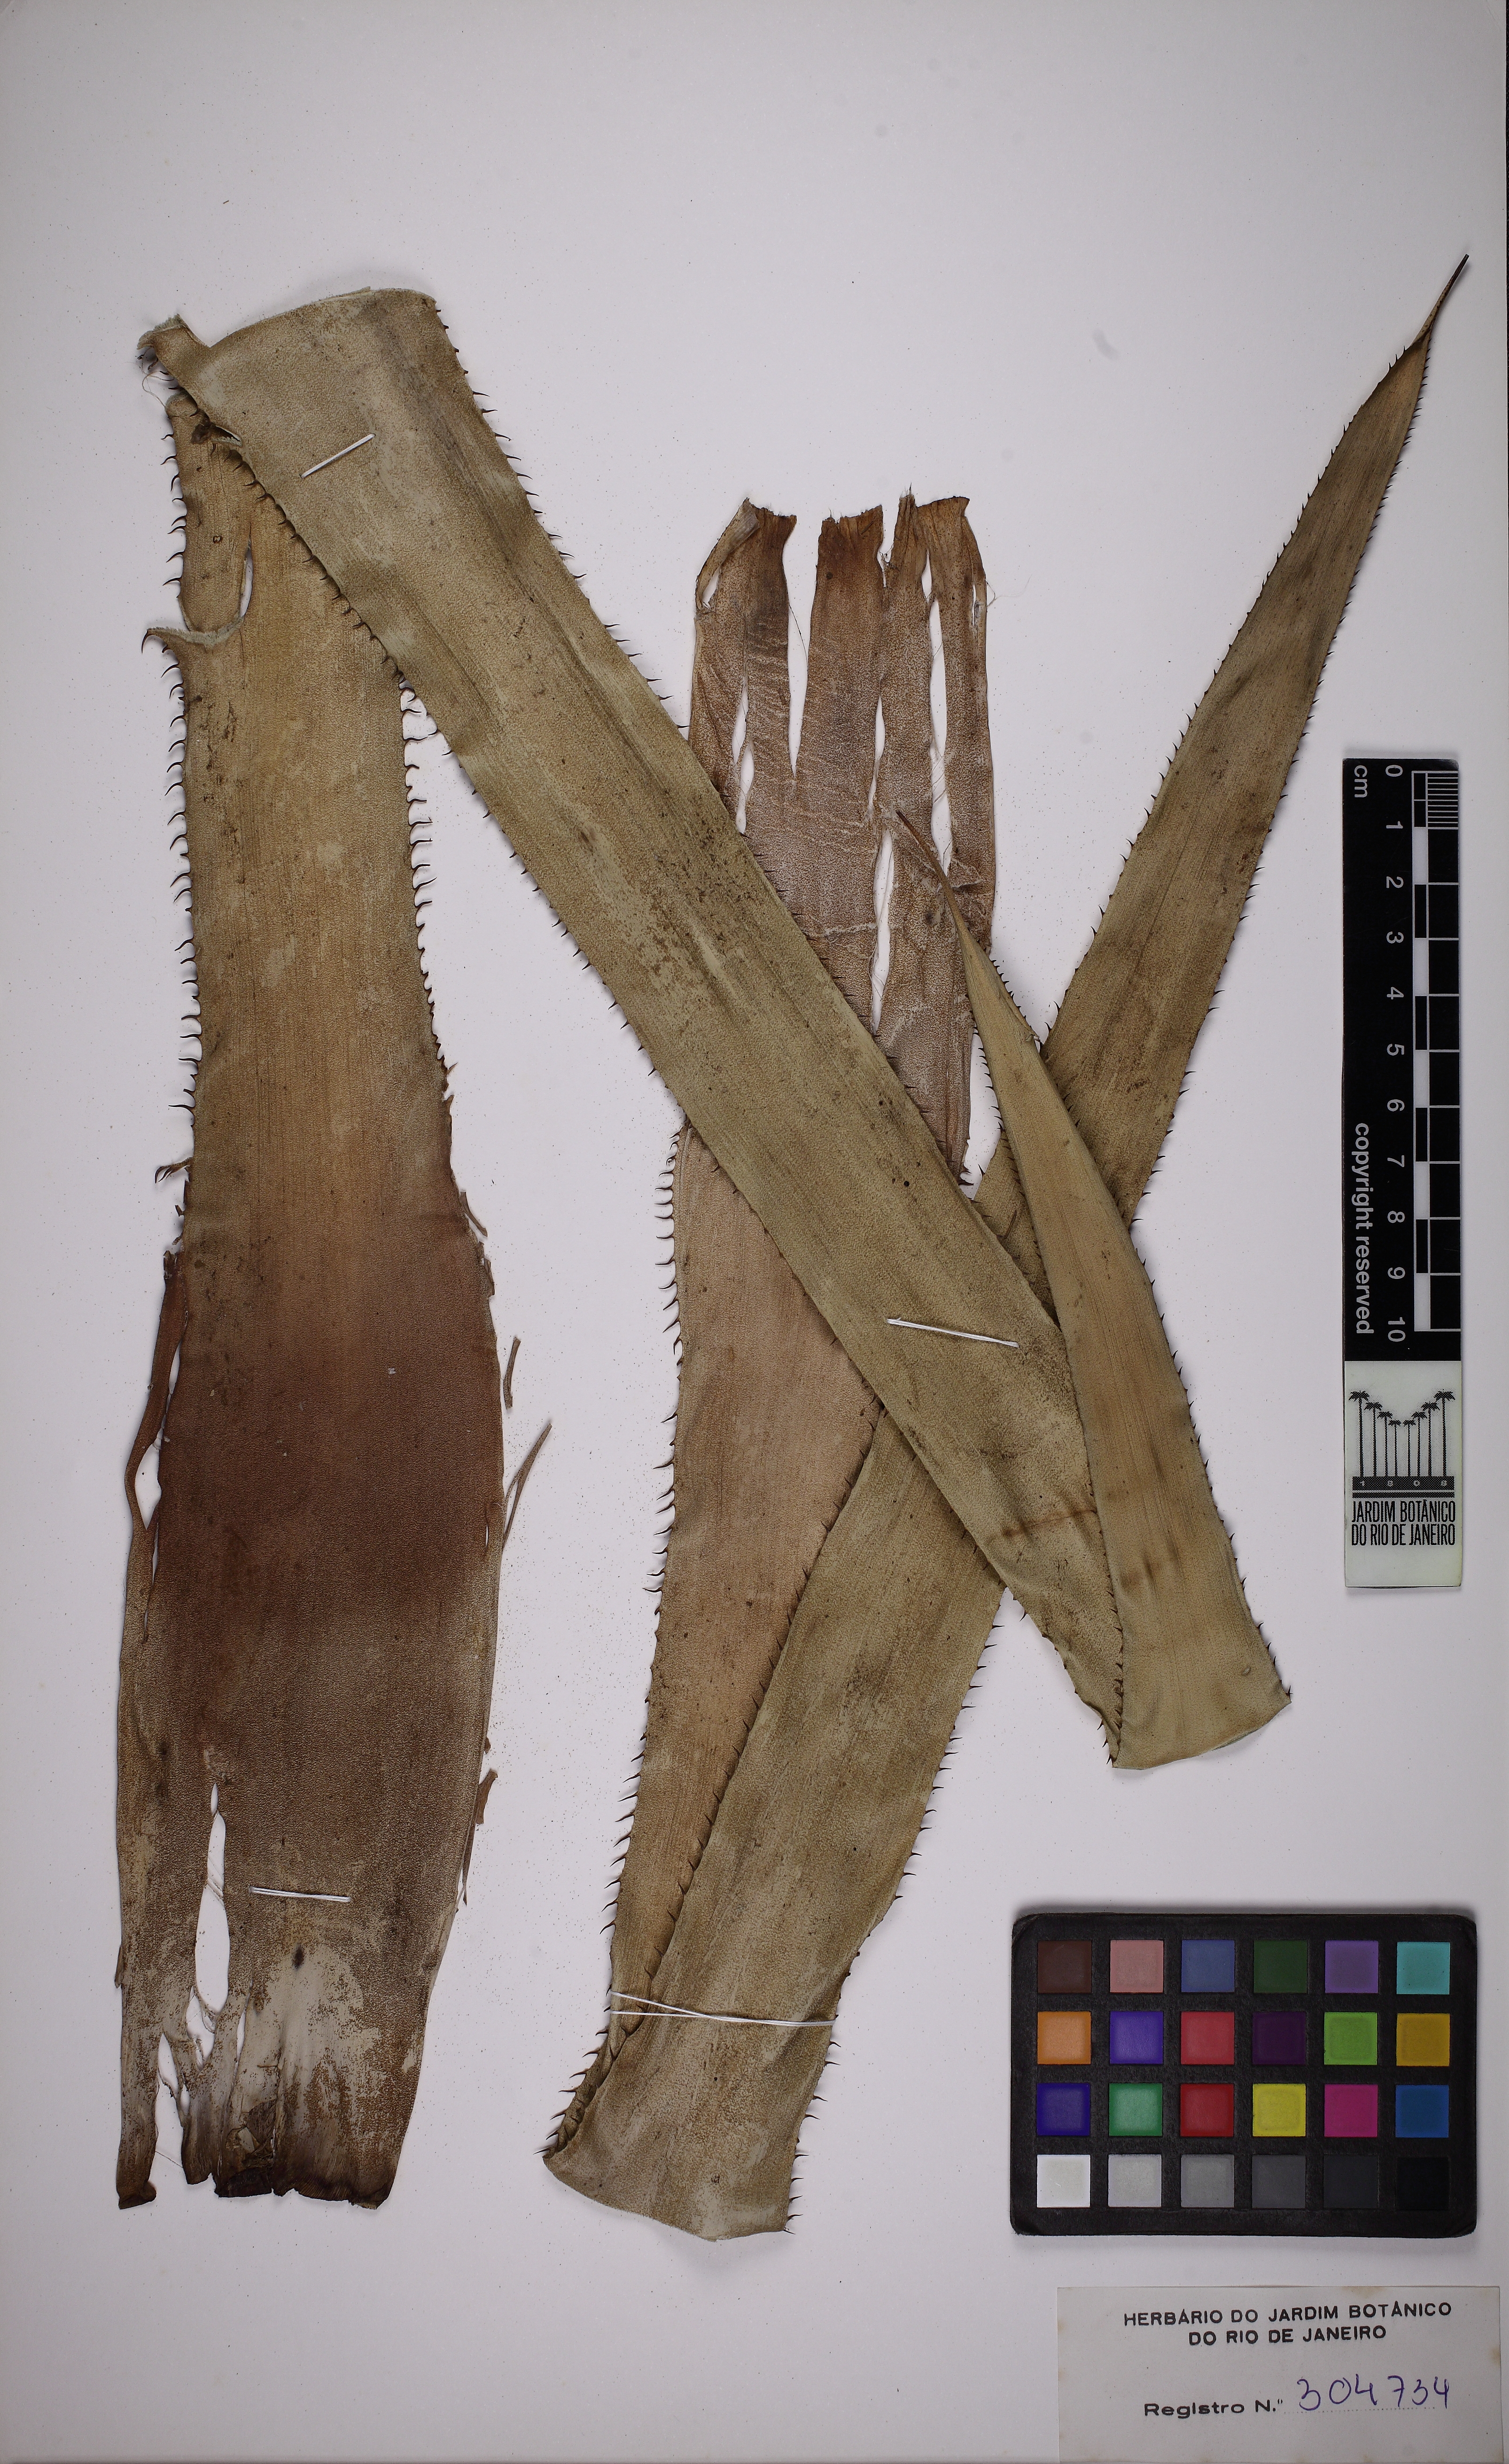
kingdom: Plantae
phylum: Tracheophyta
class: Liliopsida
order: Poales
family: Bromeliaceae
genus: Portea
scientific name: Portea petropolitana
